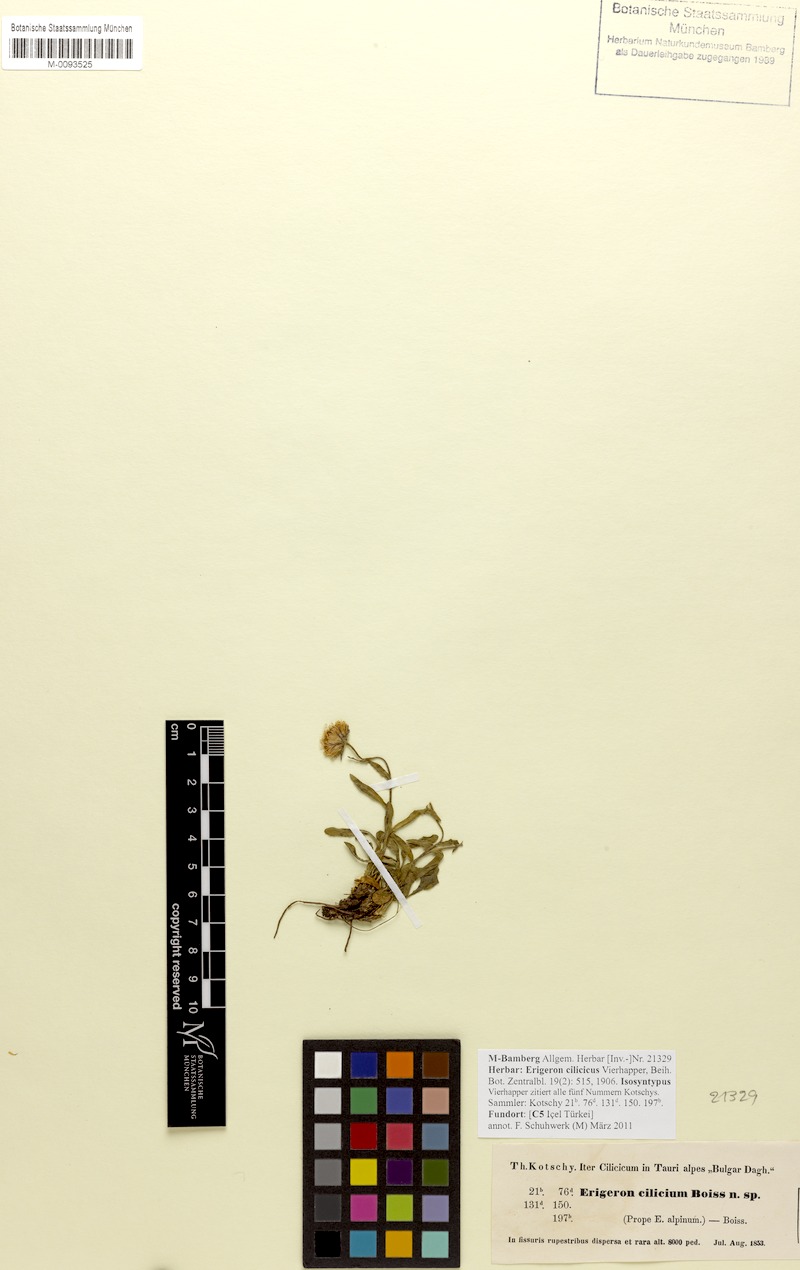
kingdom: Plantae
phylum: Tracheophyta
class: Magnoliopsida
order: Asterales
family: Asteraceae
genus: Erigeron
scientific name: Erigeron cilicicus
